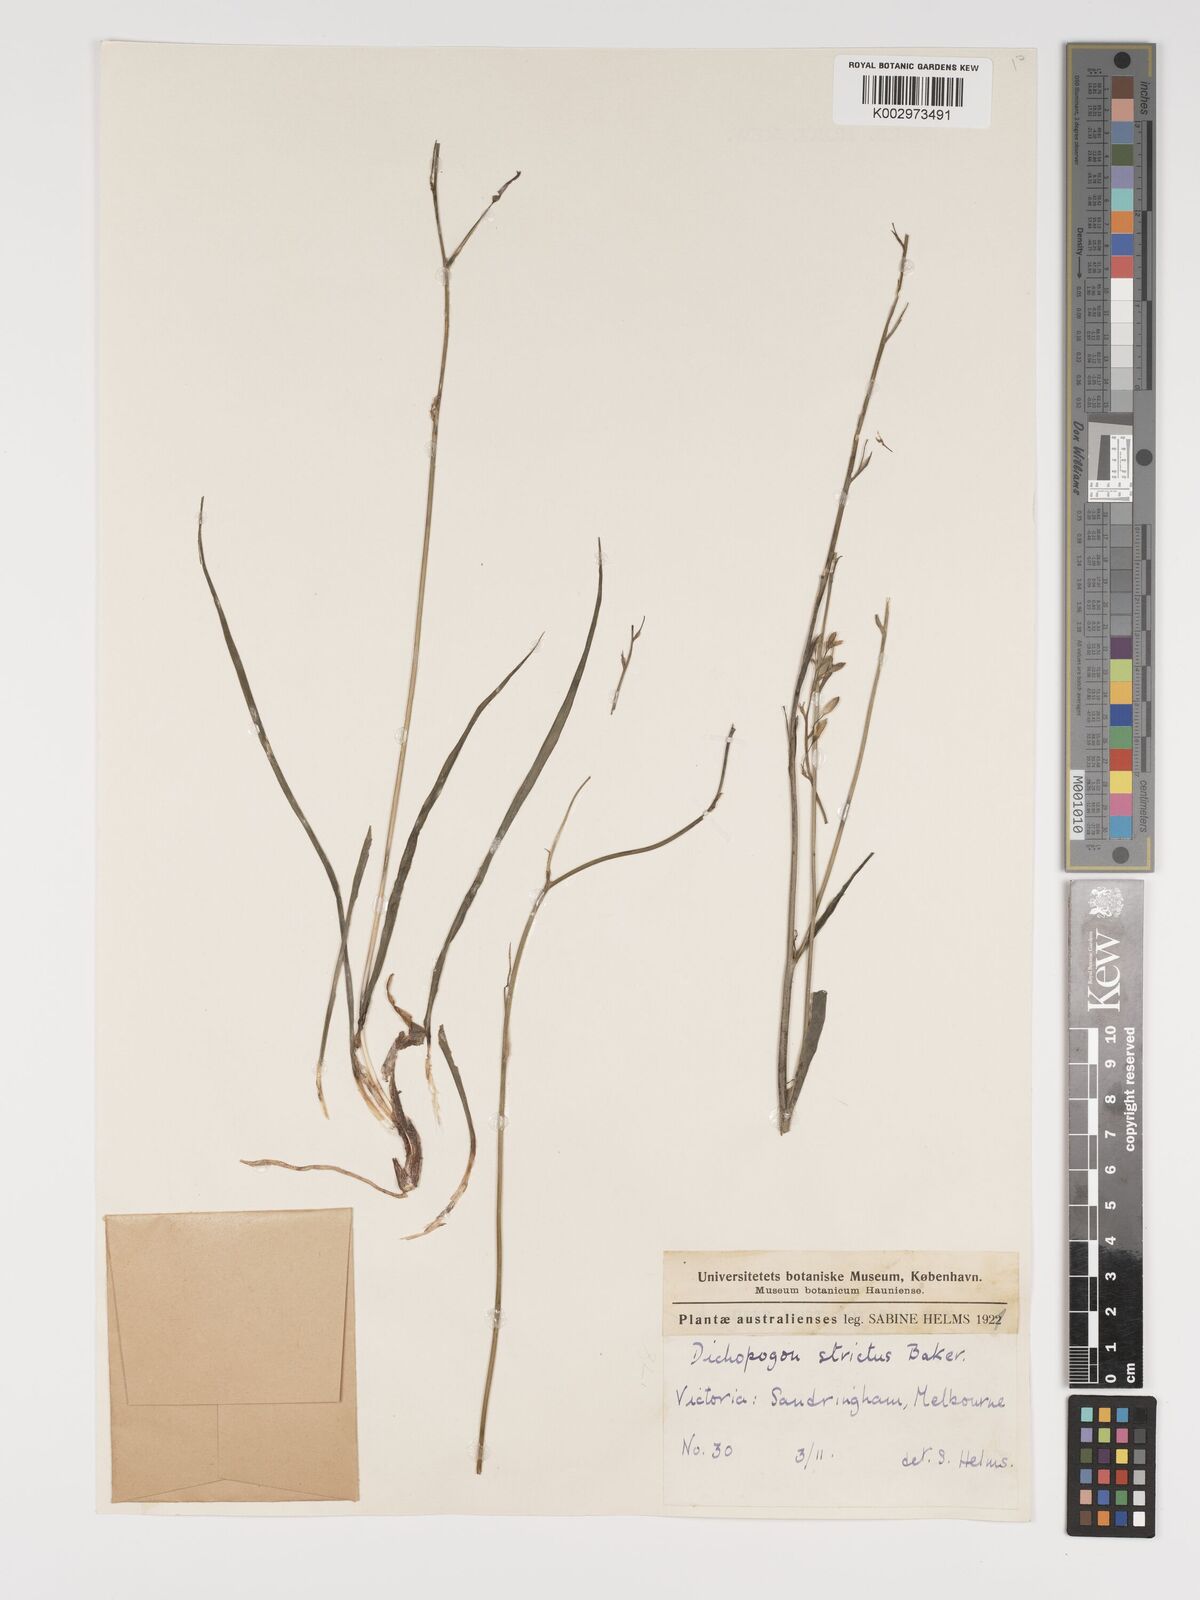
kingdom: Plantae
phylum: Tracheophyta
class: Liliopsida
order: Asparagales
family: Asparagaceae
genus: Arthropodium
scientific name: Arthropodium strictum
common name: Chocolate-lily
